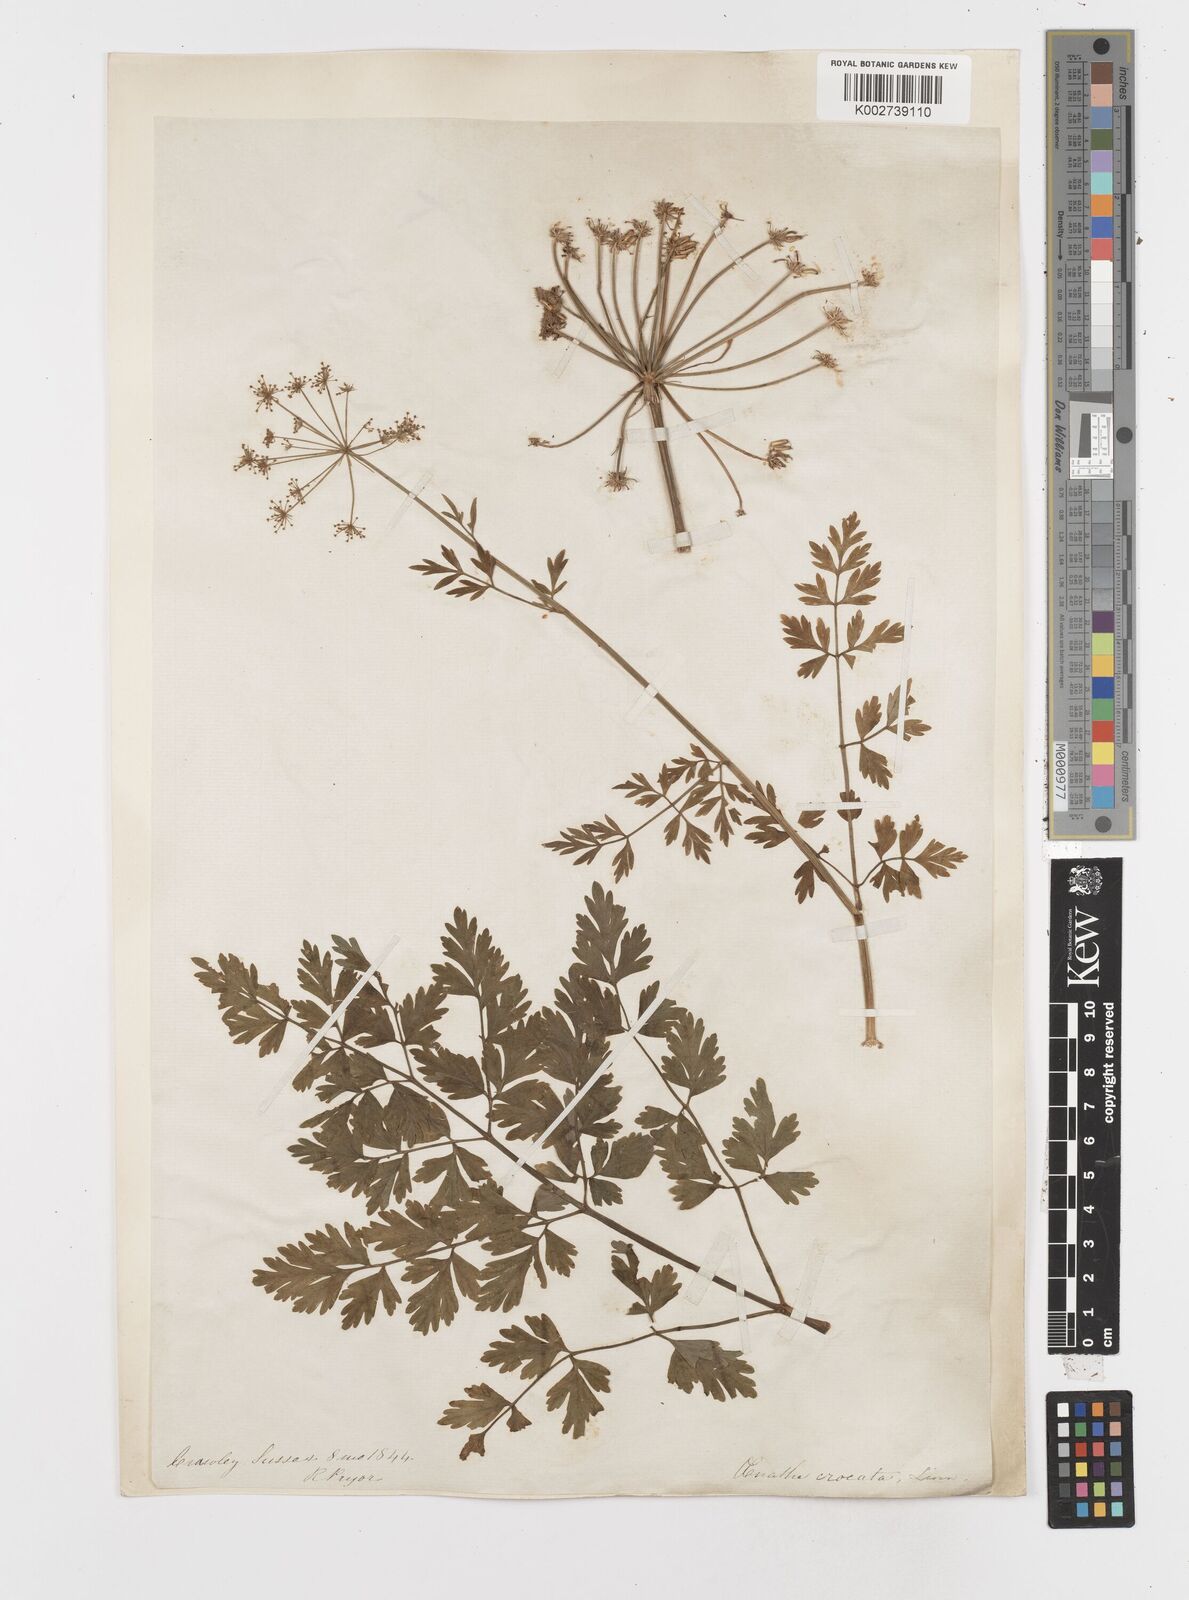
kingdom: Plantae
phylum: Tracheophyta
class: Magnoliopsida
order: Apiales
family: Apiaceae
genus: Oenanthe
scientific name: Oenanthe crocata
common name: Hemlock water-dropwort
